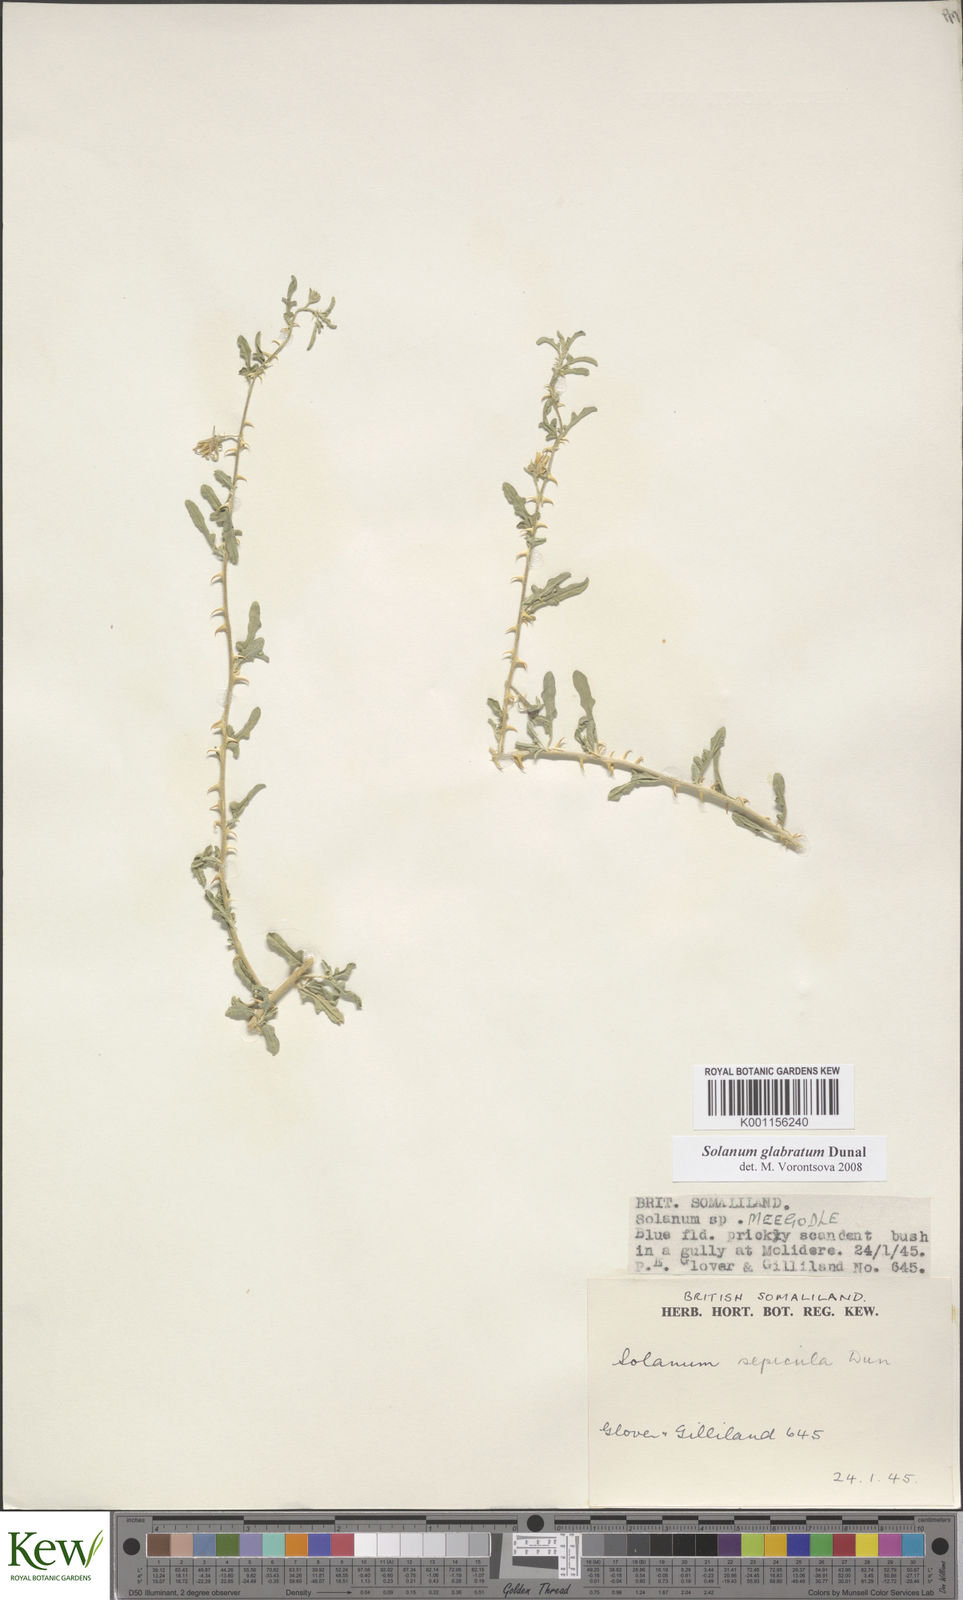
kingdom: Plantae
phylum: Tracheophyta
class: Magnoliopsida
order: Solanales
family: Solanaceae
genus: Solanum
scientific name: Solanum glabratum
